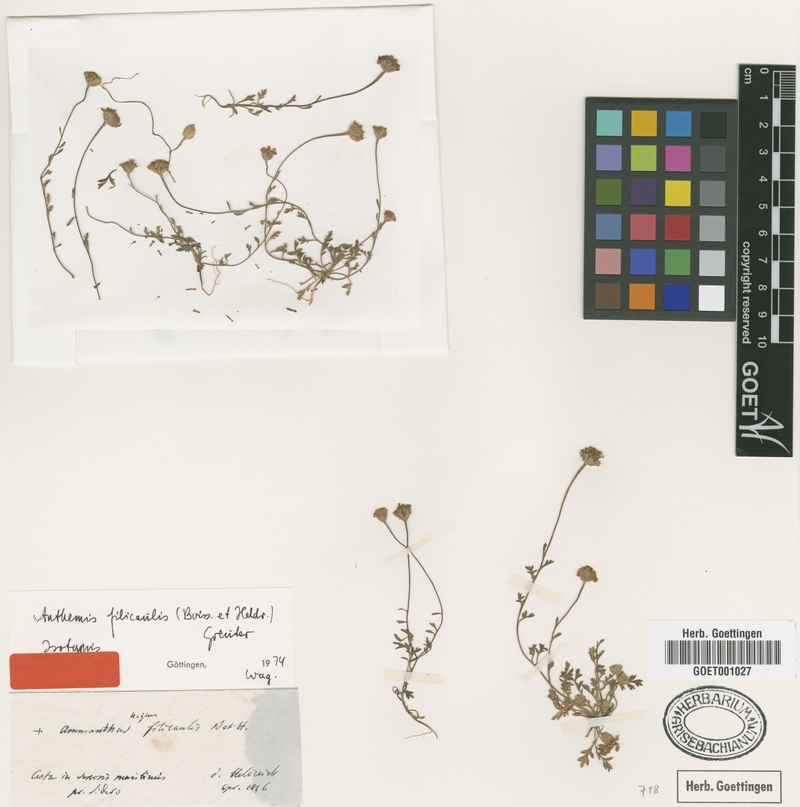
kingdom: Plantae
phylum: Tracheophyta
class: Magnoliopsida
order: Asterales
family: Asteraceae
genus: Anthemis
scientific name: Anthemis filicaulis
